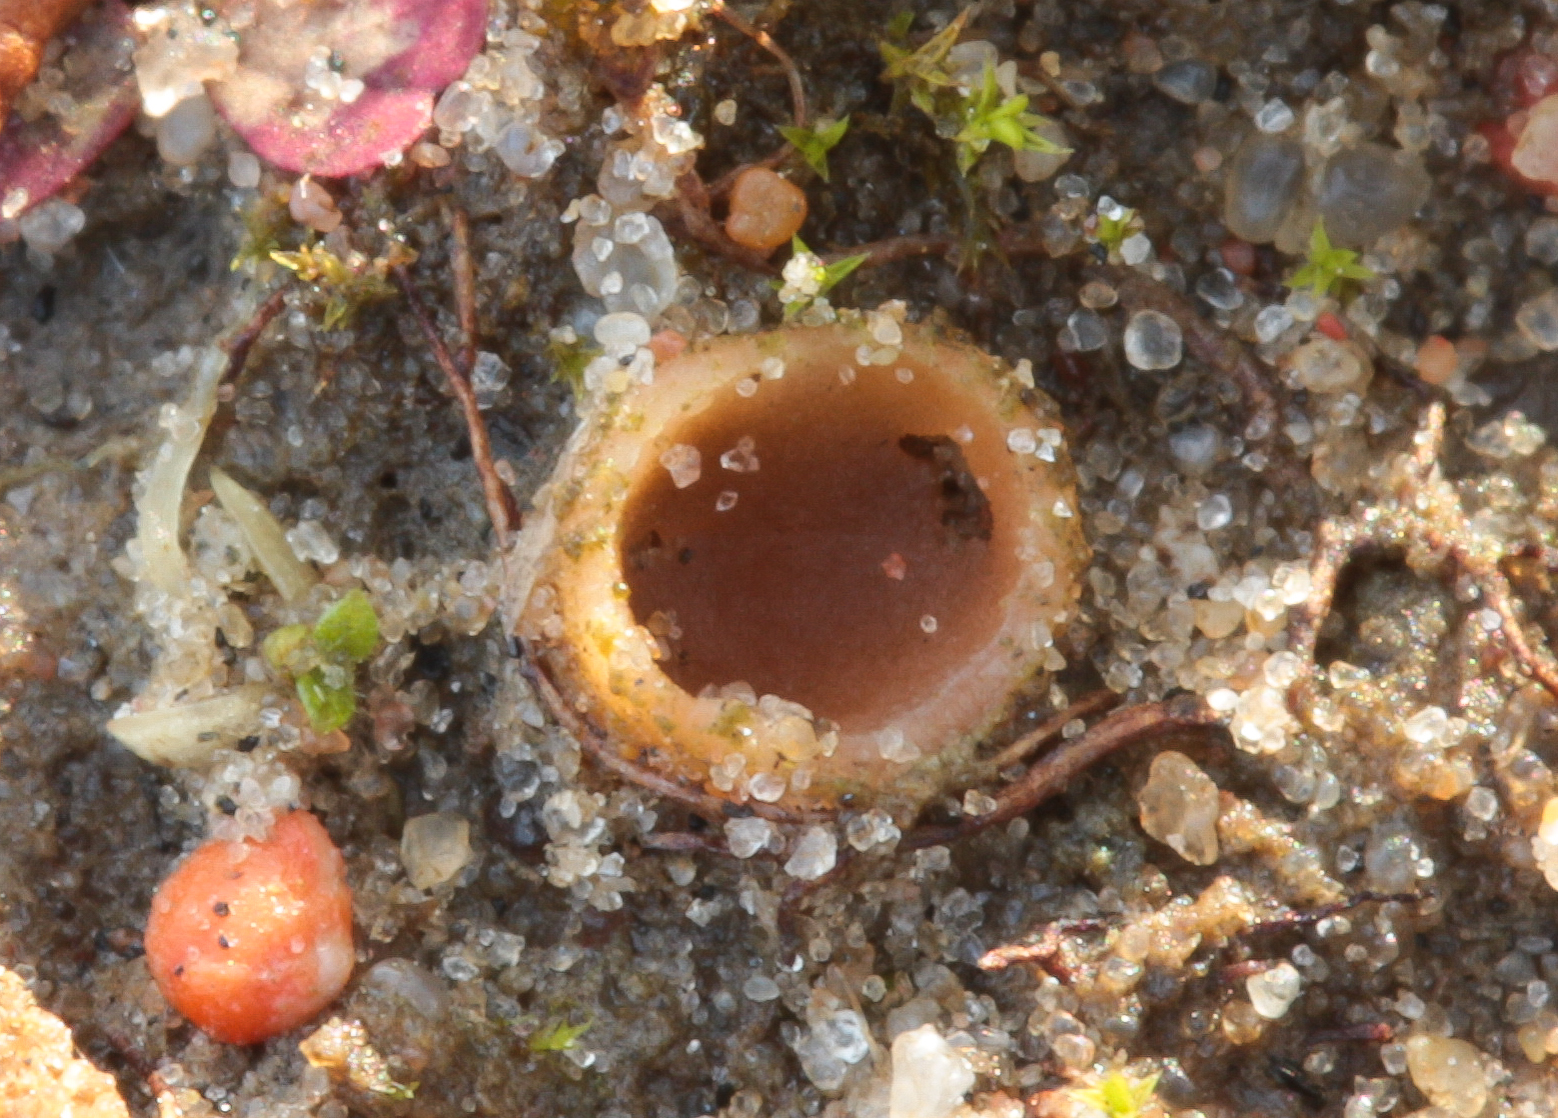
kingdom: Fungi
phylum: Ascomycota
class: Pezizomycetes
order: Pezizales
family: Pyronemataceae
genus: Geopora
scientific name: Geopora semi-immersa
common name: nedsænket børstebæger
